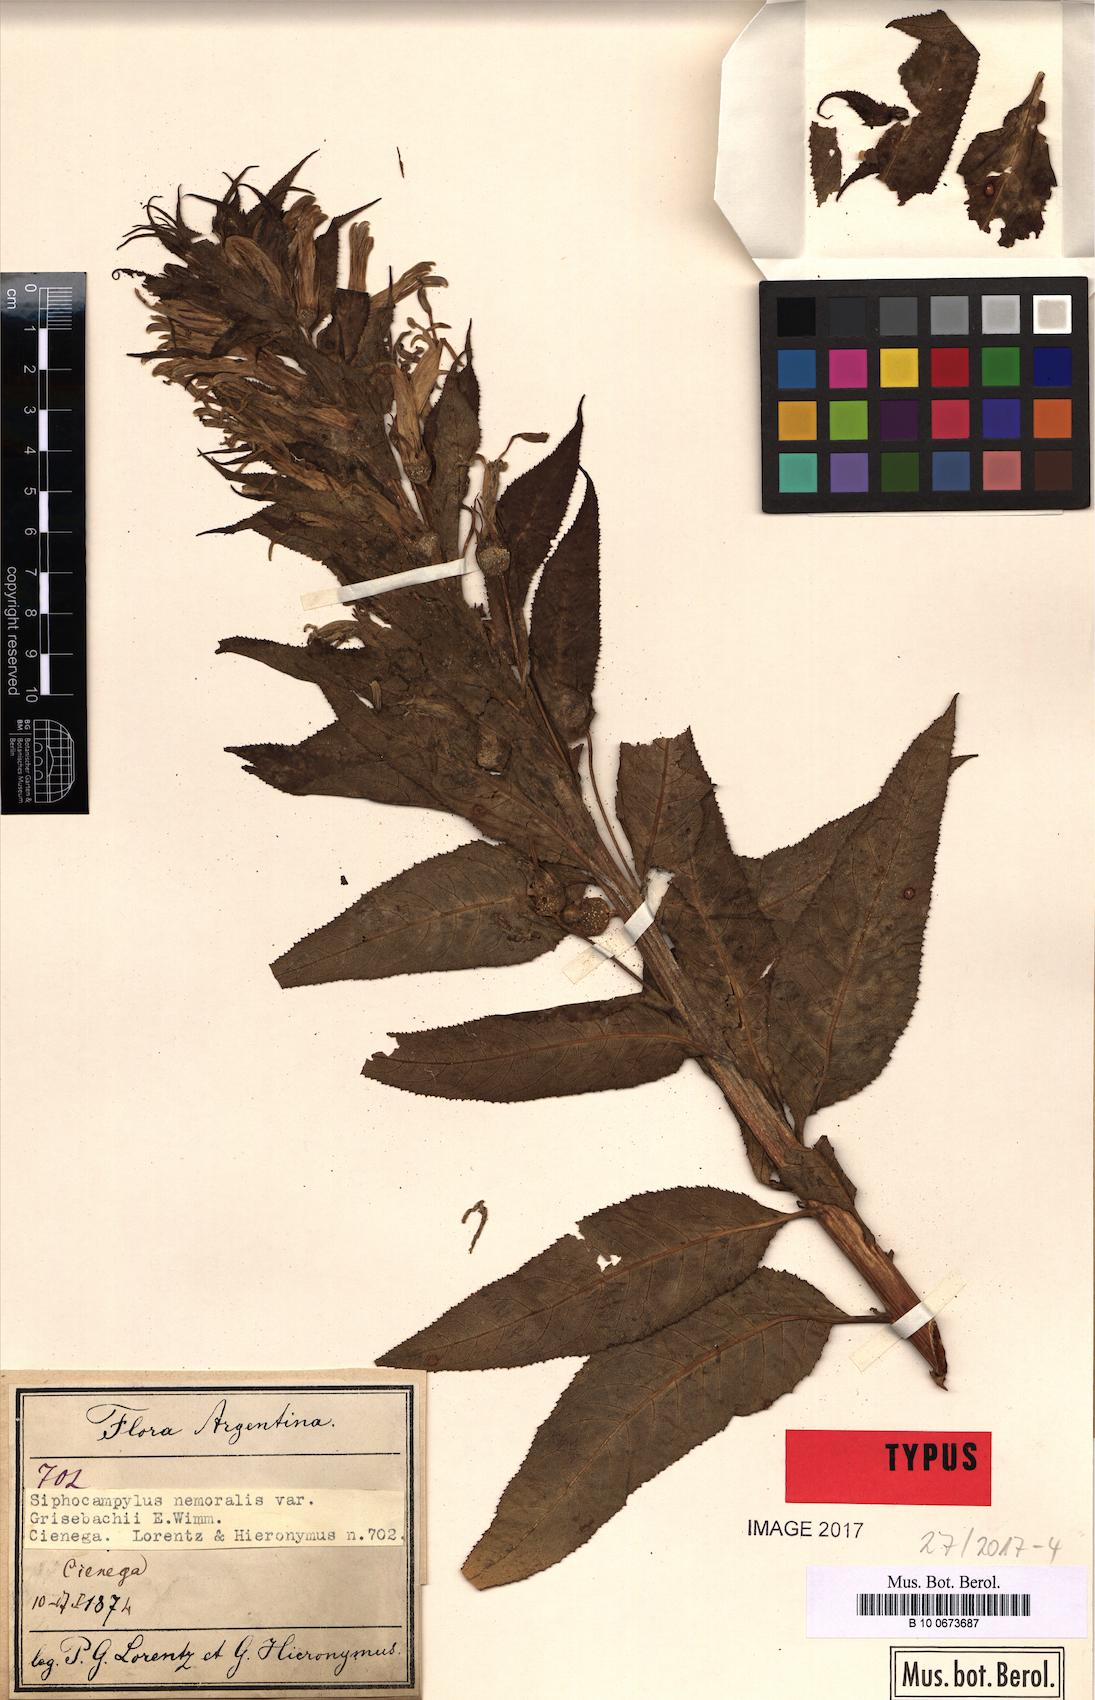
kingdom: Plantae
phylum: Tracheophyta
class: Magnoliopsida
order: Asterales
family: Campanulaceae
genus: Siphocampylus
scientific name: Siphocampylus nemoralis
